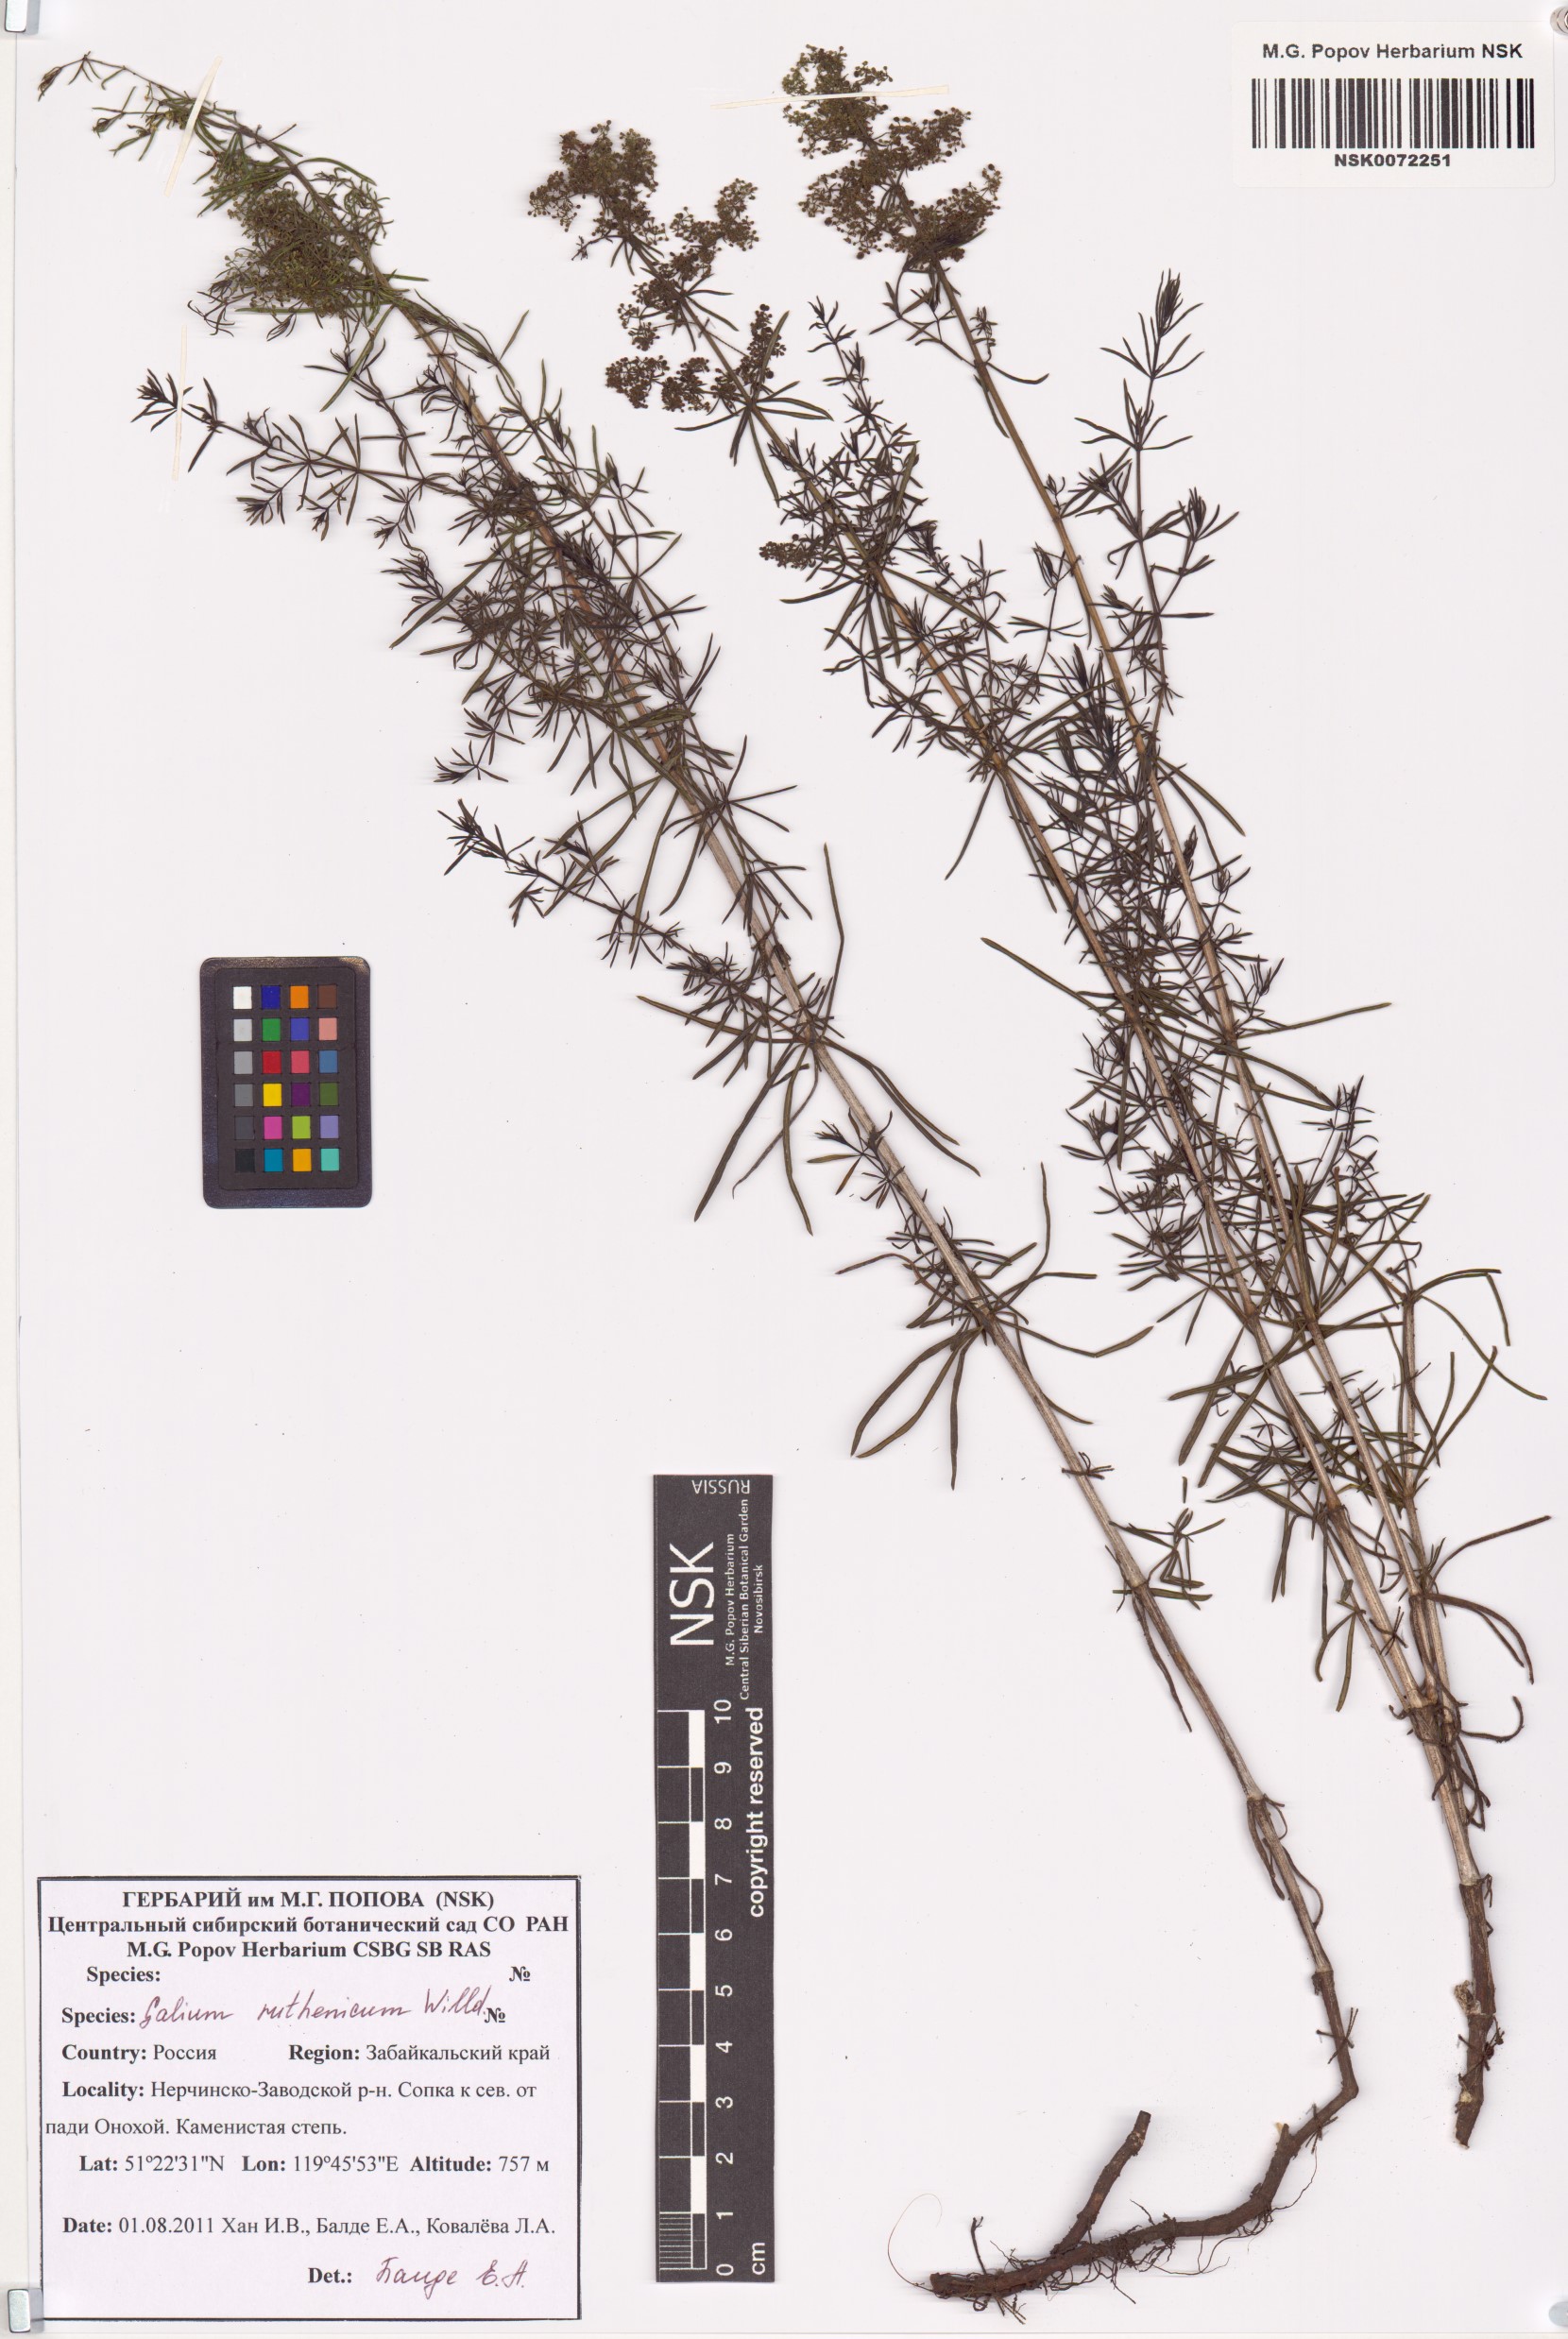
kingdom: Plantae
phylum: Tracheophyta
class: Magnoliopsida
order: Gentianales
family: Rubiaceae
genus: Galium
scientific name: Galium verum
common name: Lady's bedstraw
